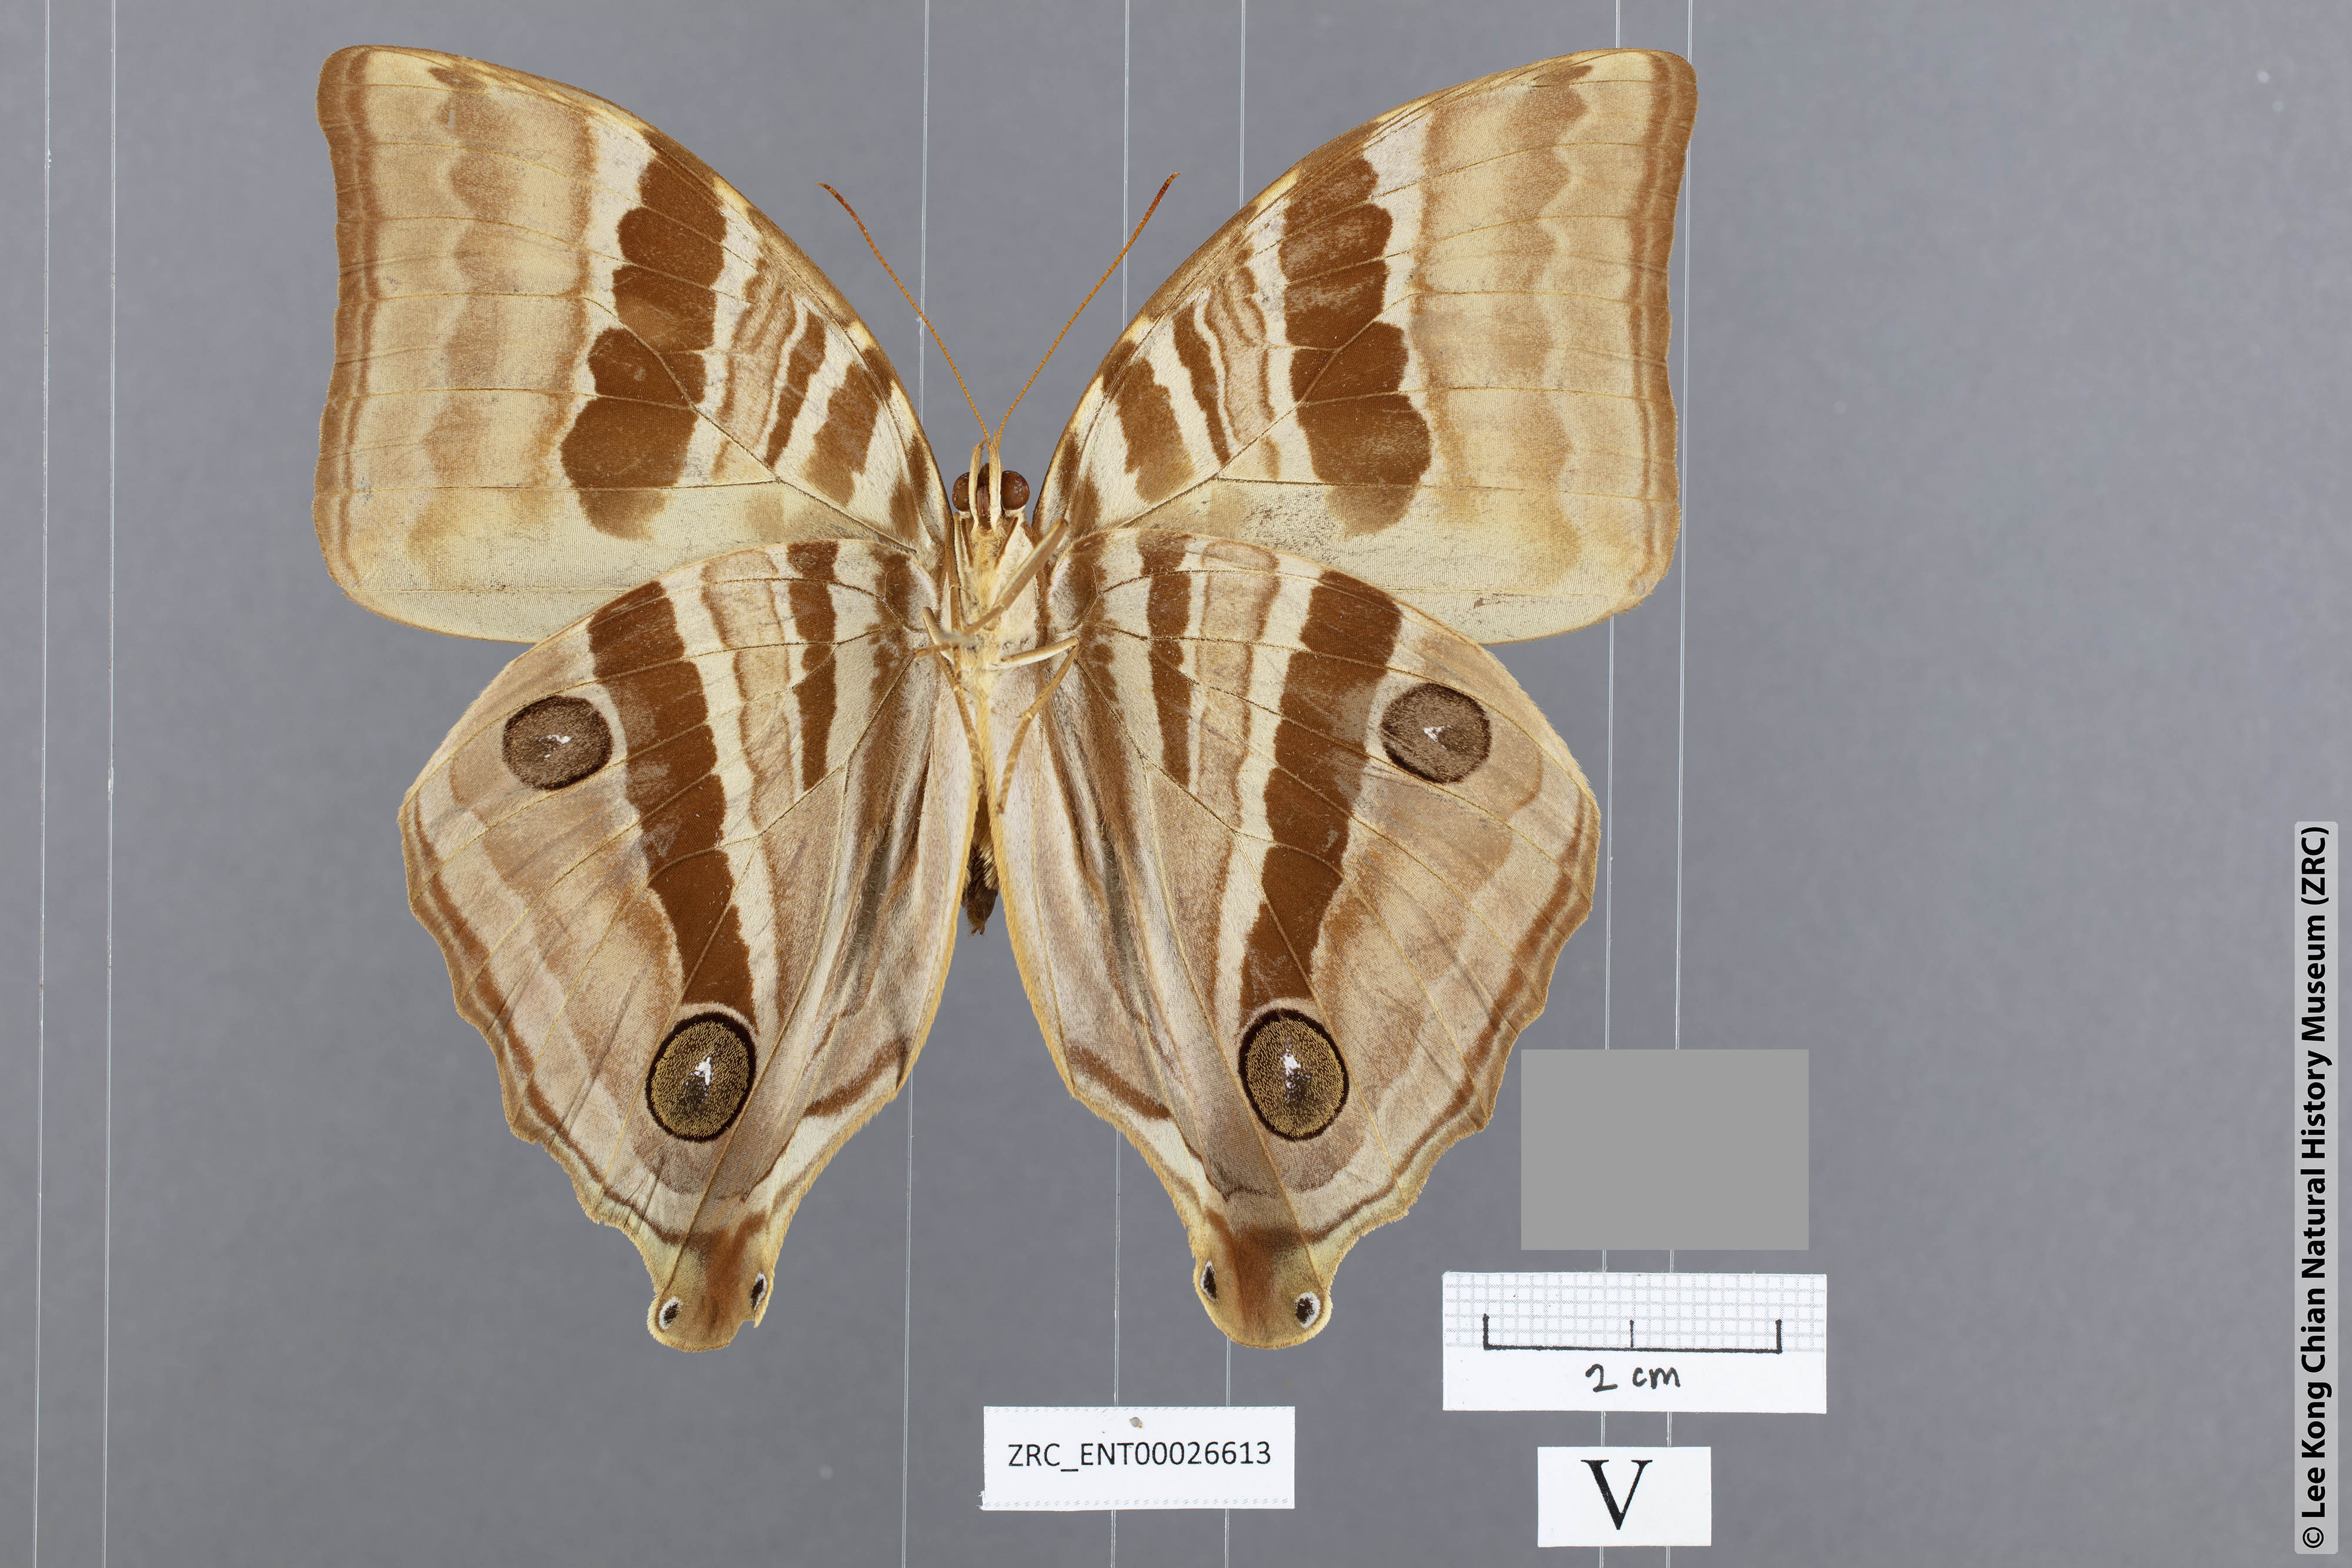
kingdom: Animalia
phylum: Arthropoda
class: Insecta
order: Lepidoptera
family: Nymphalidae
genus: Amathusia
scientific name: Amathusia
